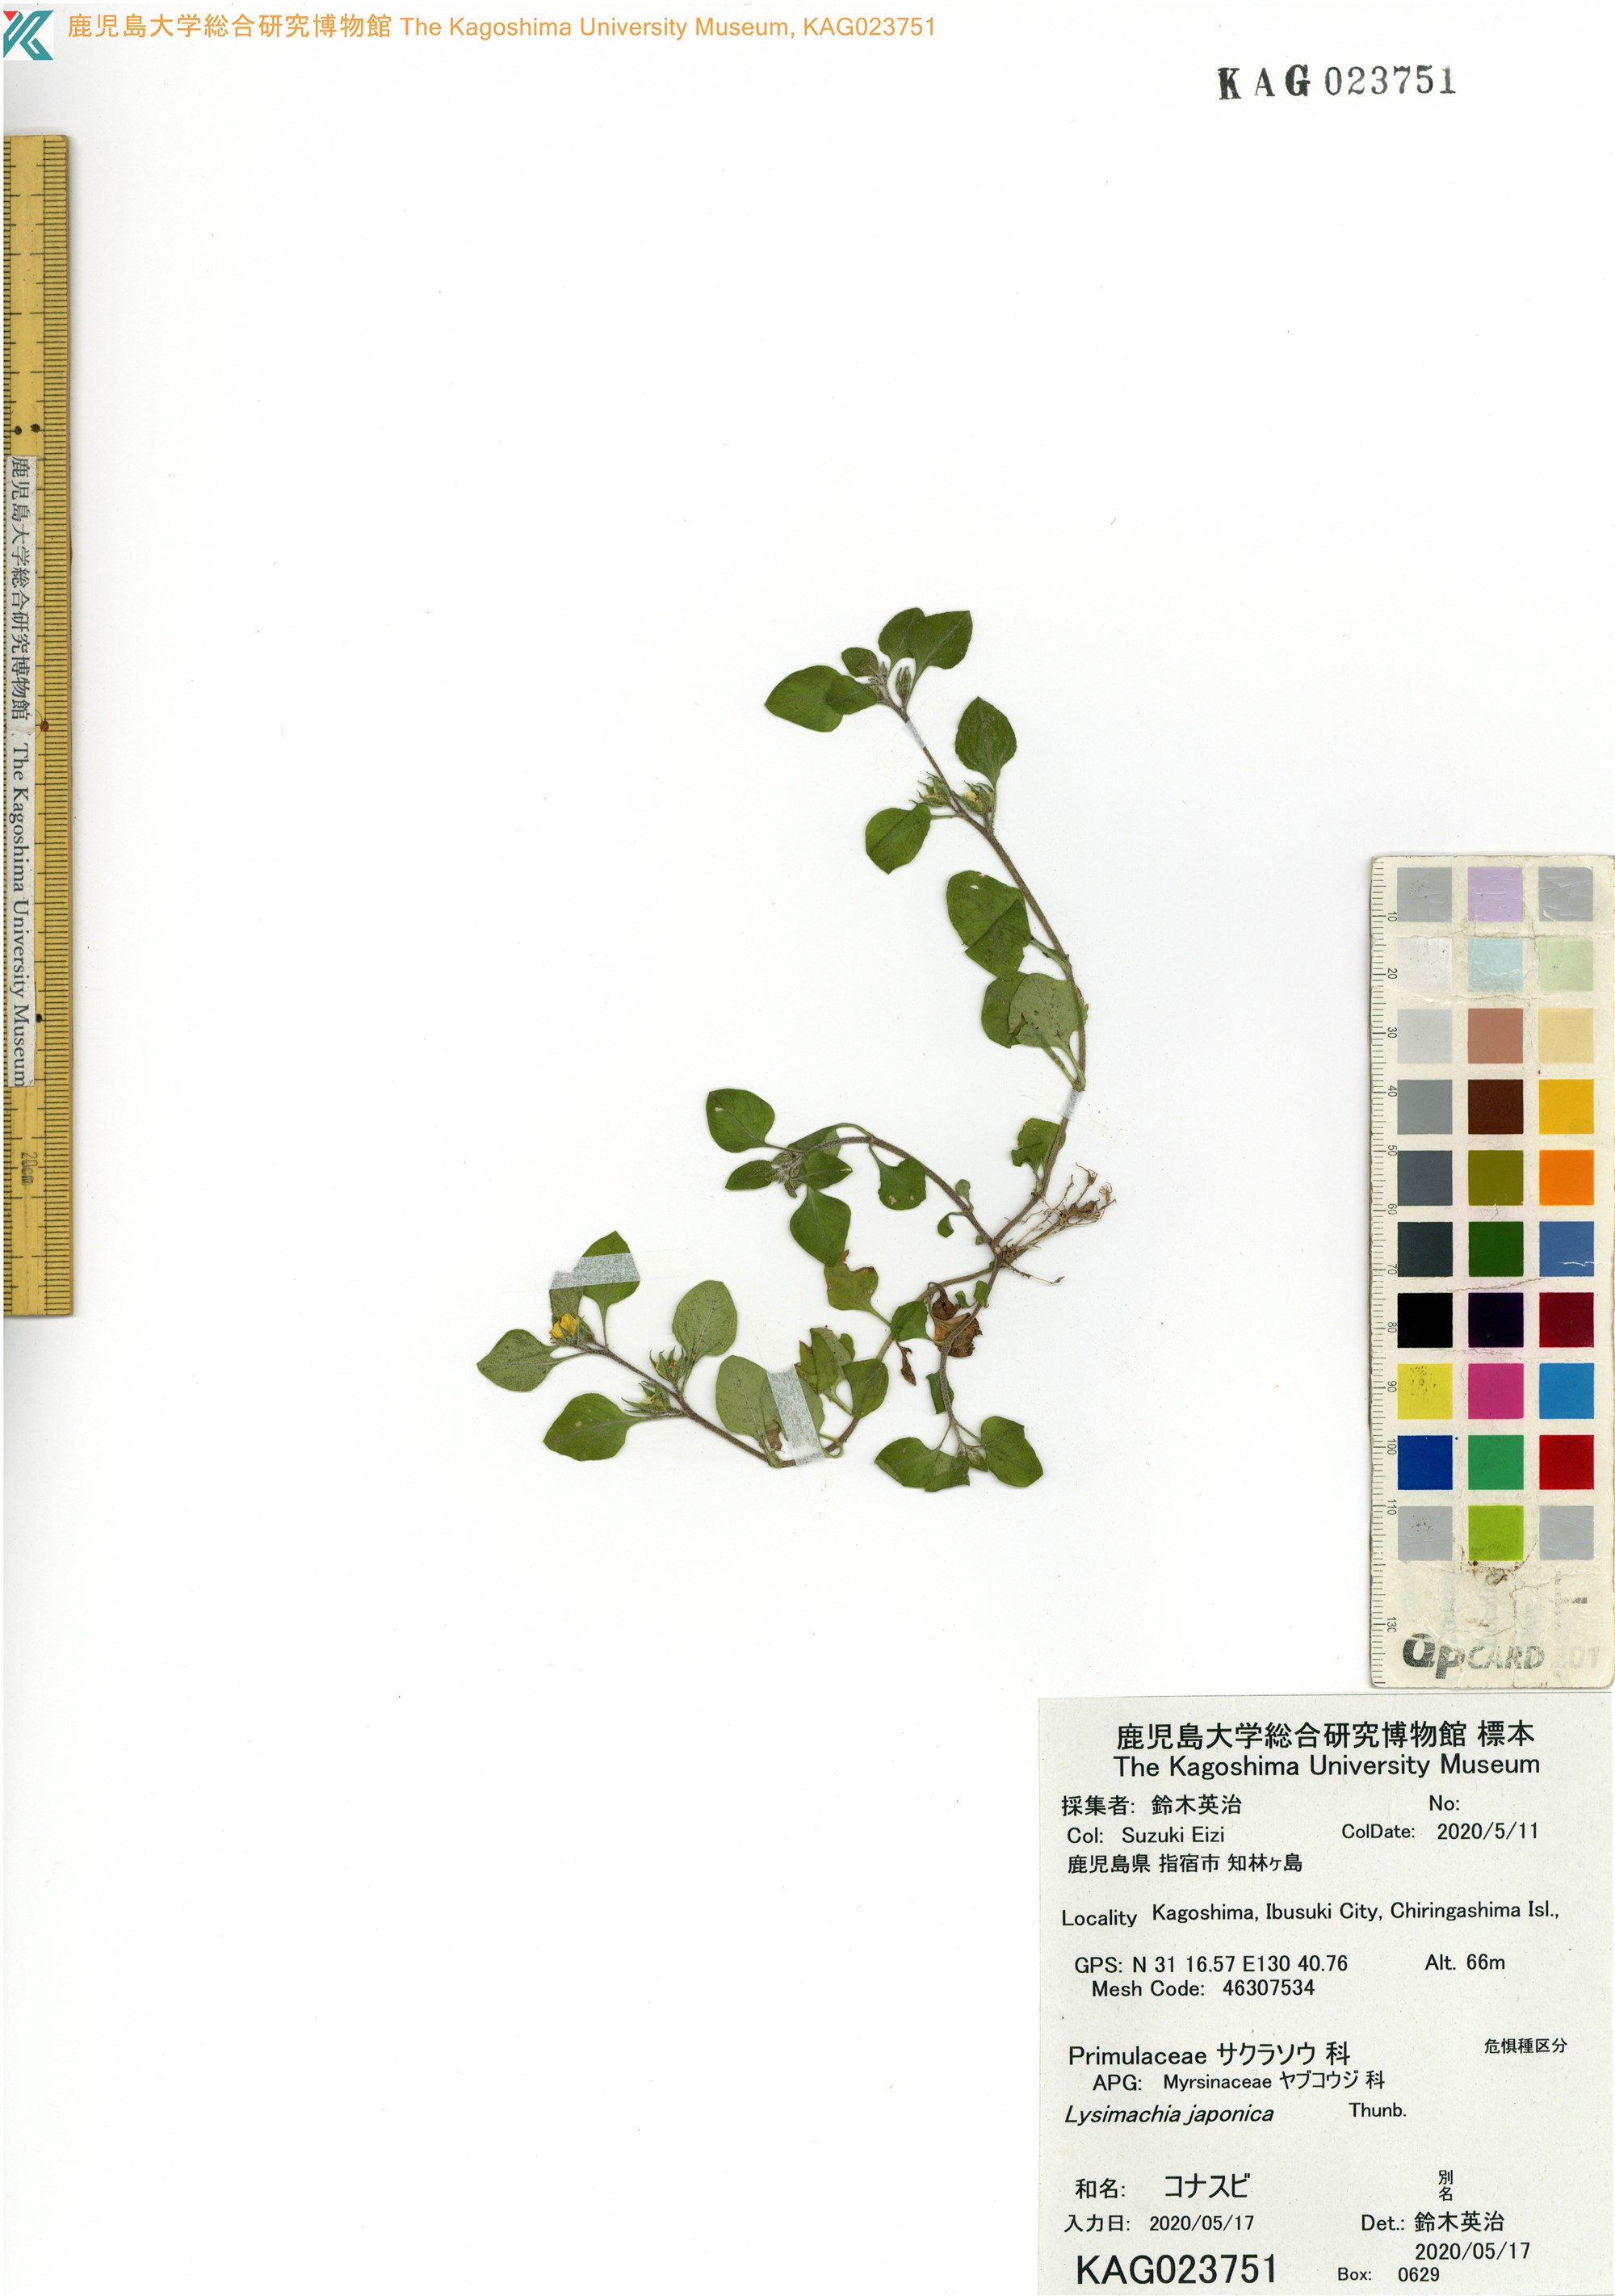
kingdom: Plantae
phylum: Tracheophyta
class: Magnoliopsida
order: Ericales
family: Primulaceae
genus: Lysimachia
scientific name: Lysimachia japonica
